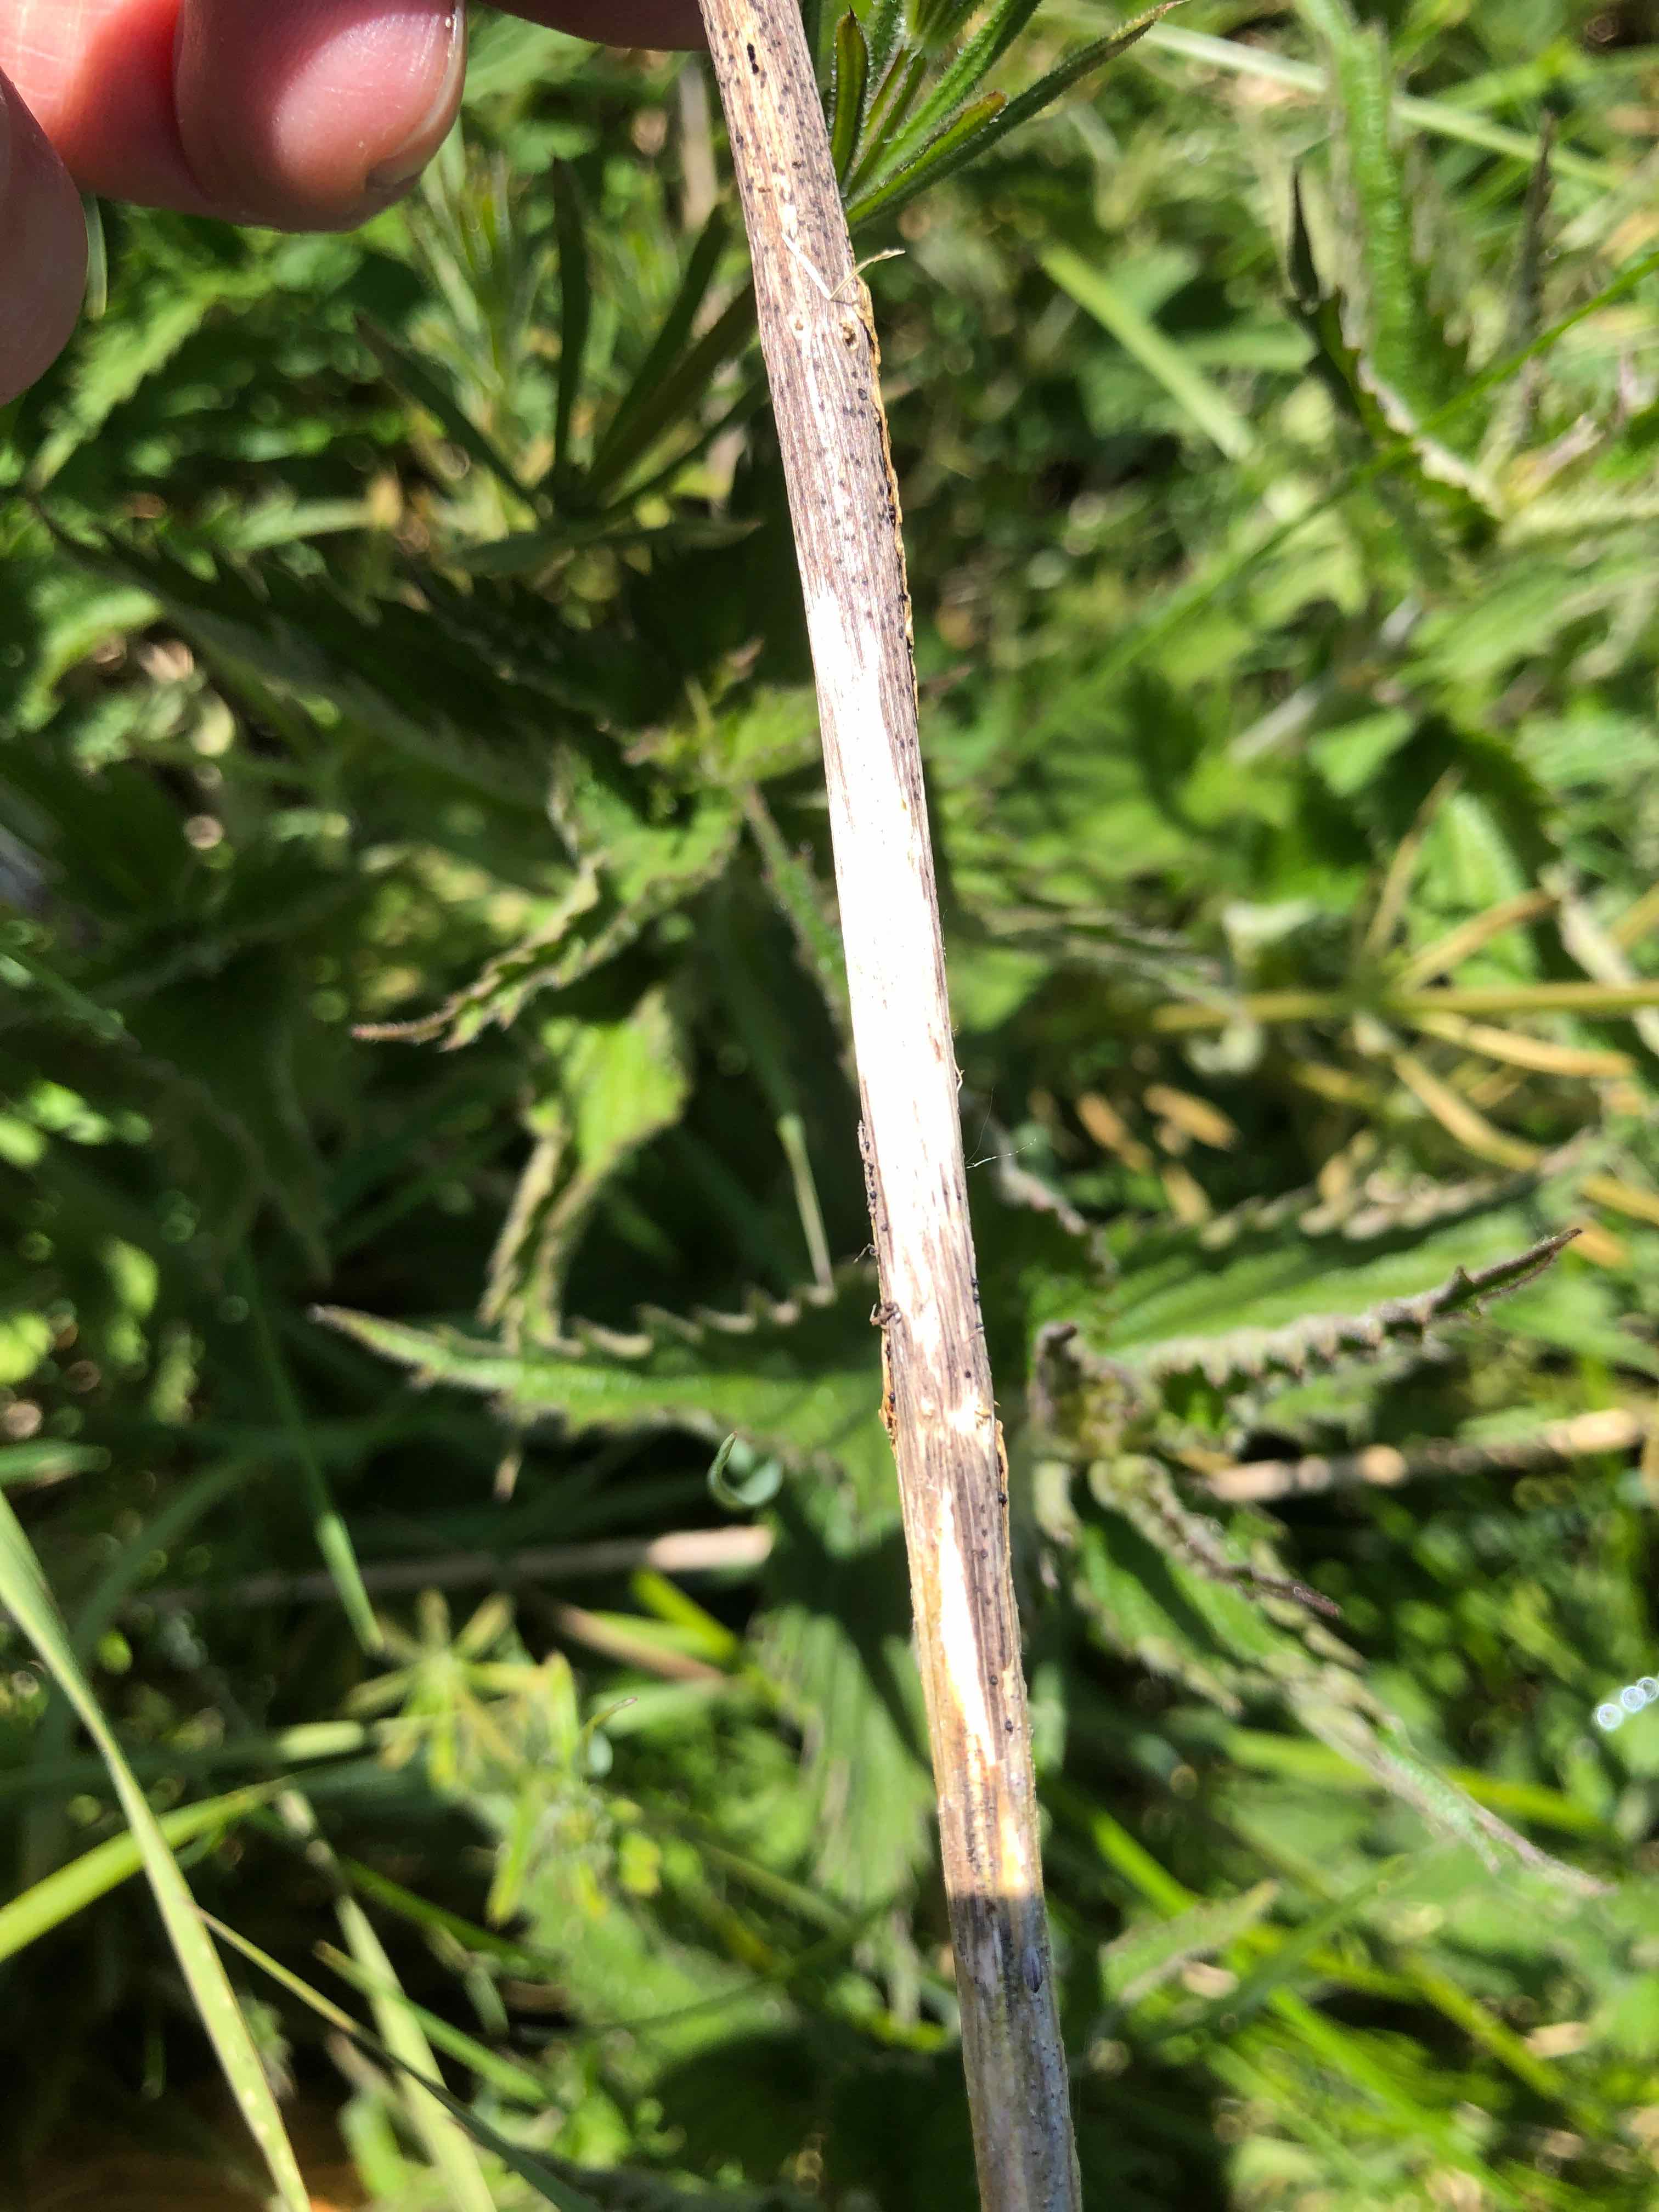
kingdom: Fungi
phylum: Ascomycota
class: Dothideomycetes
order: Acrospermales
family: Acrospermaceae
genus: Acrospermum
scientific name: Acrospermum compressum
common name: nælde-stængeltunge
